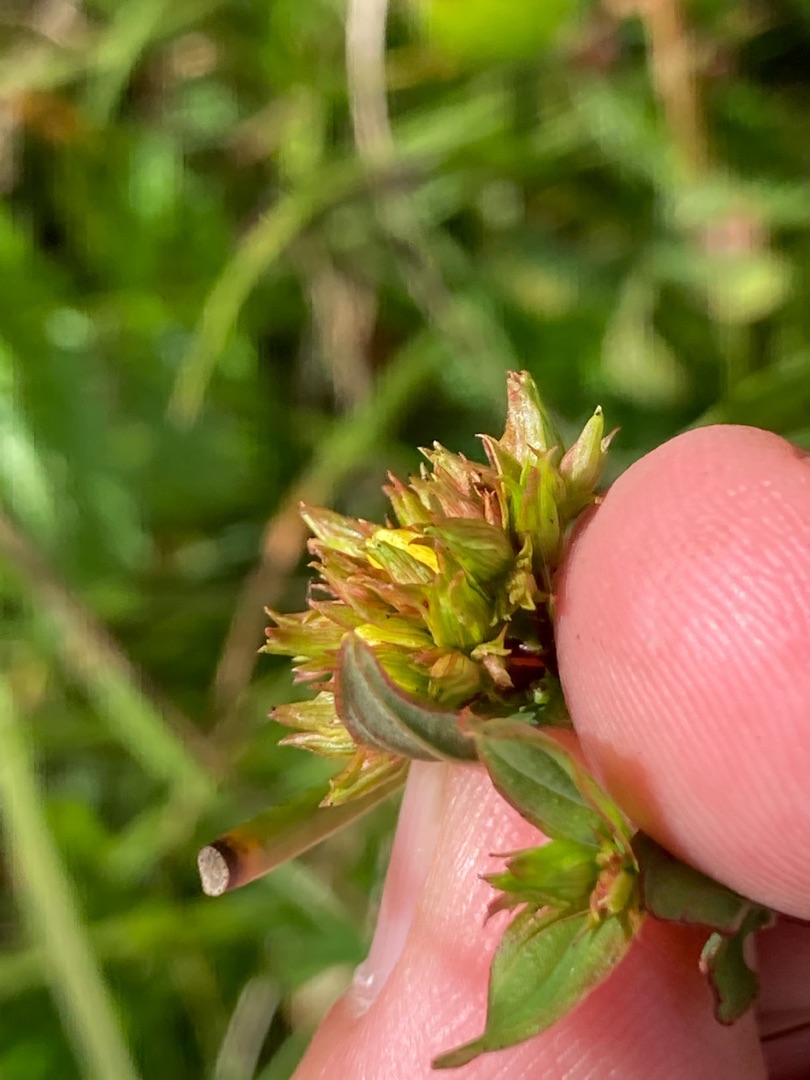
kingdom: Plantae
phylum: Tracheophyta
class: Magnoliopsida
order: Malpighiales
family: Hypericaceae
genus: Hypericum
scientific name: Hypericum tetrapterum
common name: Vinget perikon
